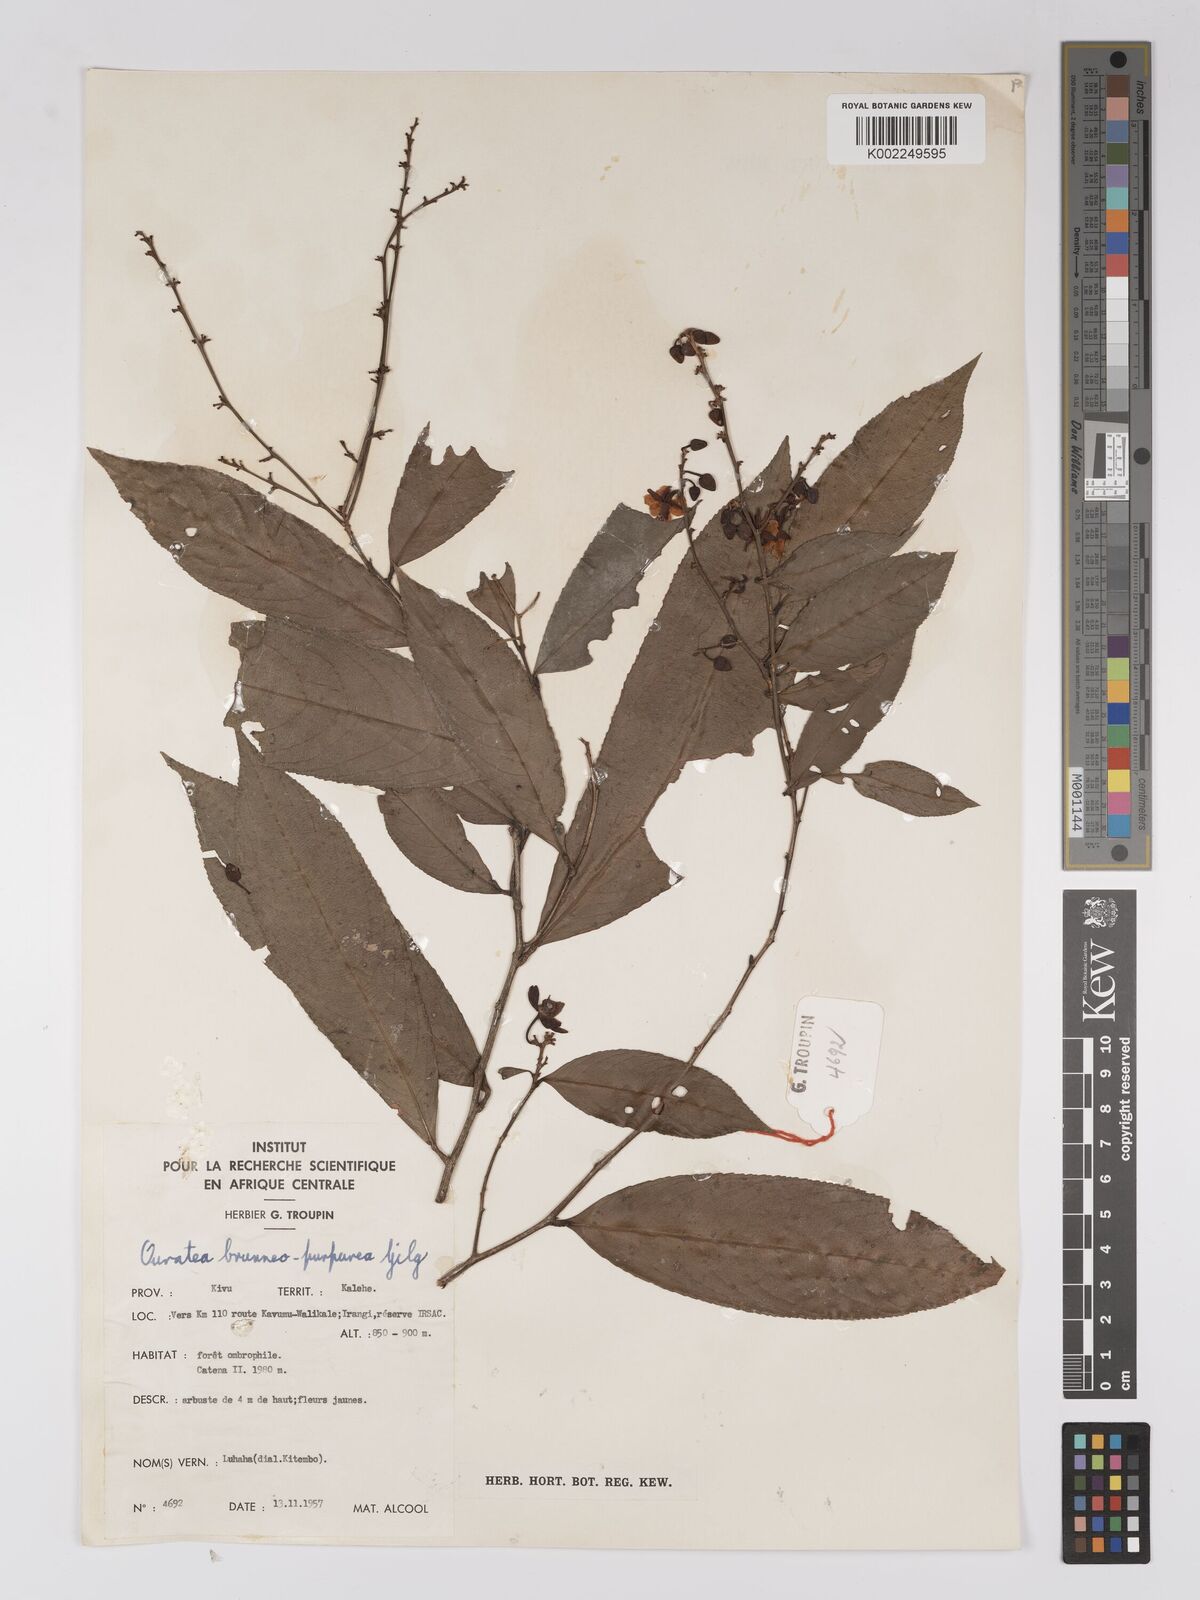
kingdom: Plantae
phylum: Tracheophyta
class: Magnoliopsida
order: Malpighiales
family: Ochnaceae
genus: Campylospermum
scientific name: Campylospermum reticulatum
